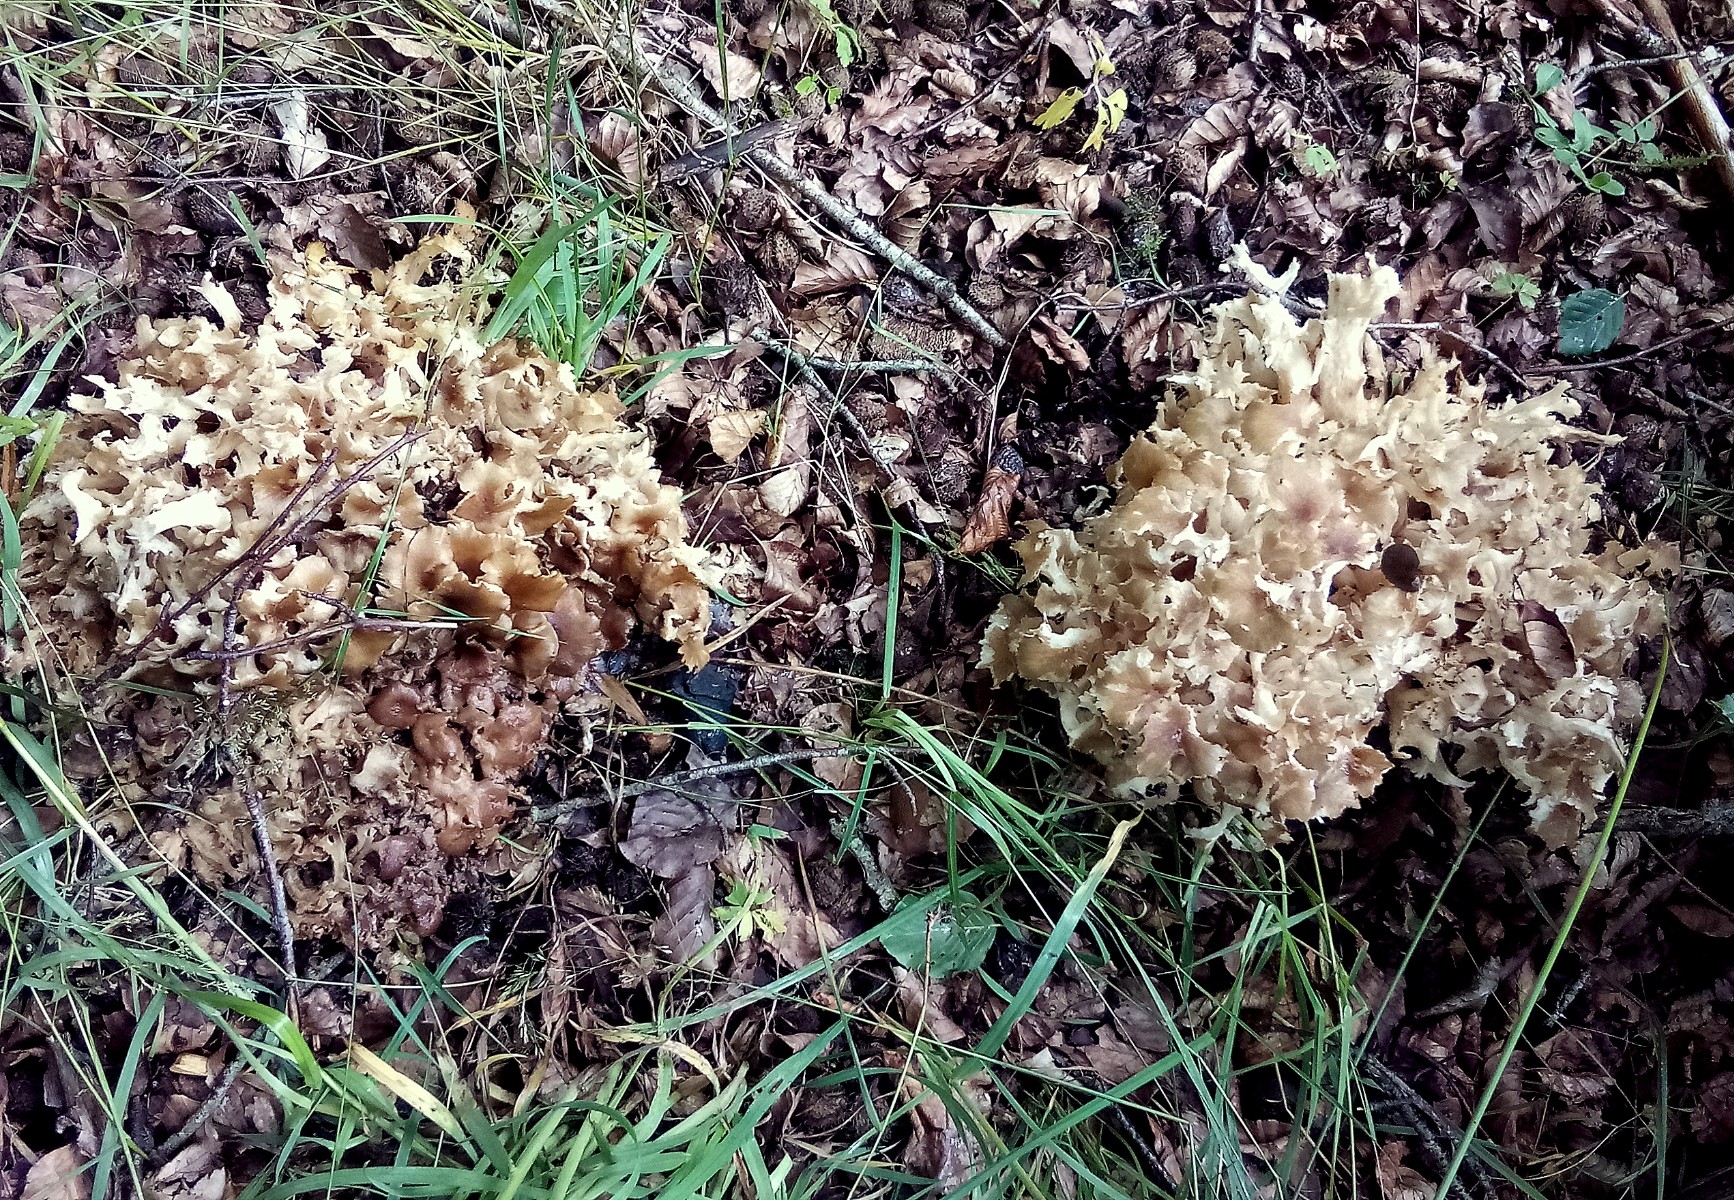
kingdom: Fungi
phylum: Basidiomycota
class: Agaricomycetes
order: Polyporales
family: Polyporaceae
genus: Polyporus
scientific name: Polyporus umbellatus
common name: skærmformet stilkporesvamp
